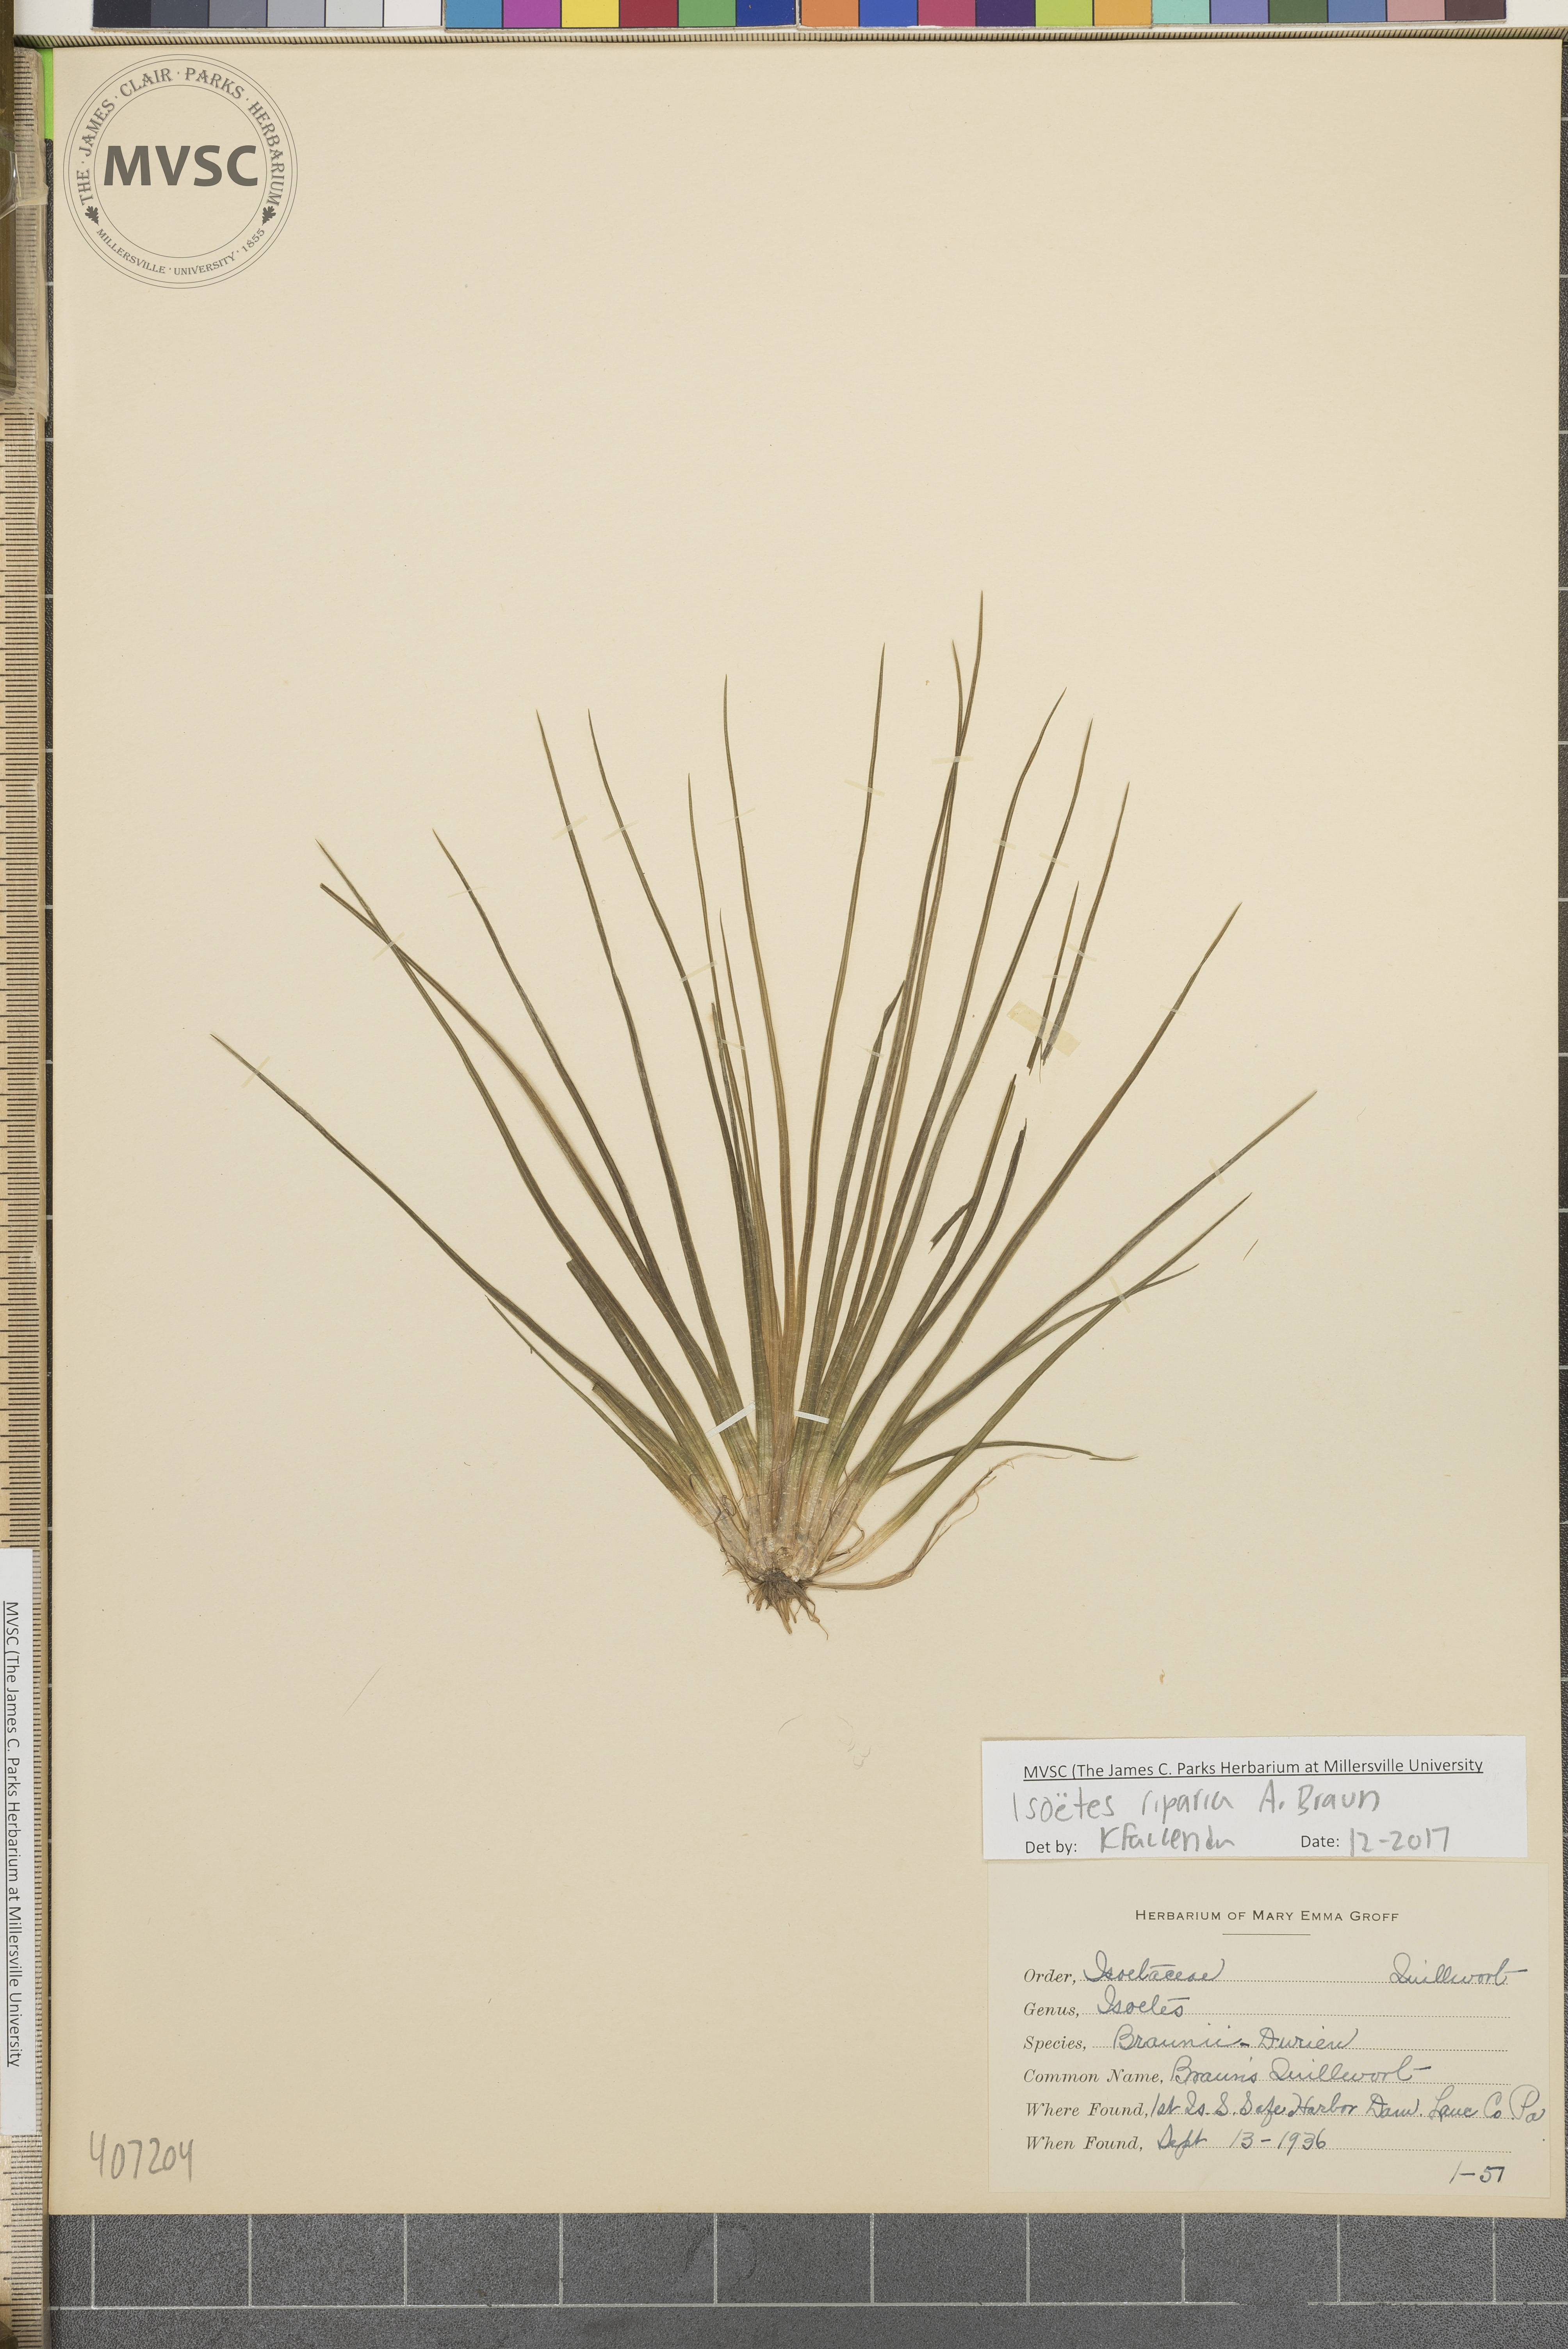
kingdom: Plantae
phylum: Tracheophyta
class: Lycopodiopsida
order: Isoetales
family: Isoetaceae
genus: Isoetes
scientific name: Isoetes riparia
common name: Riverbank quillwort
